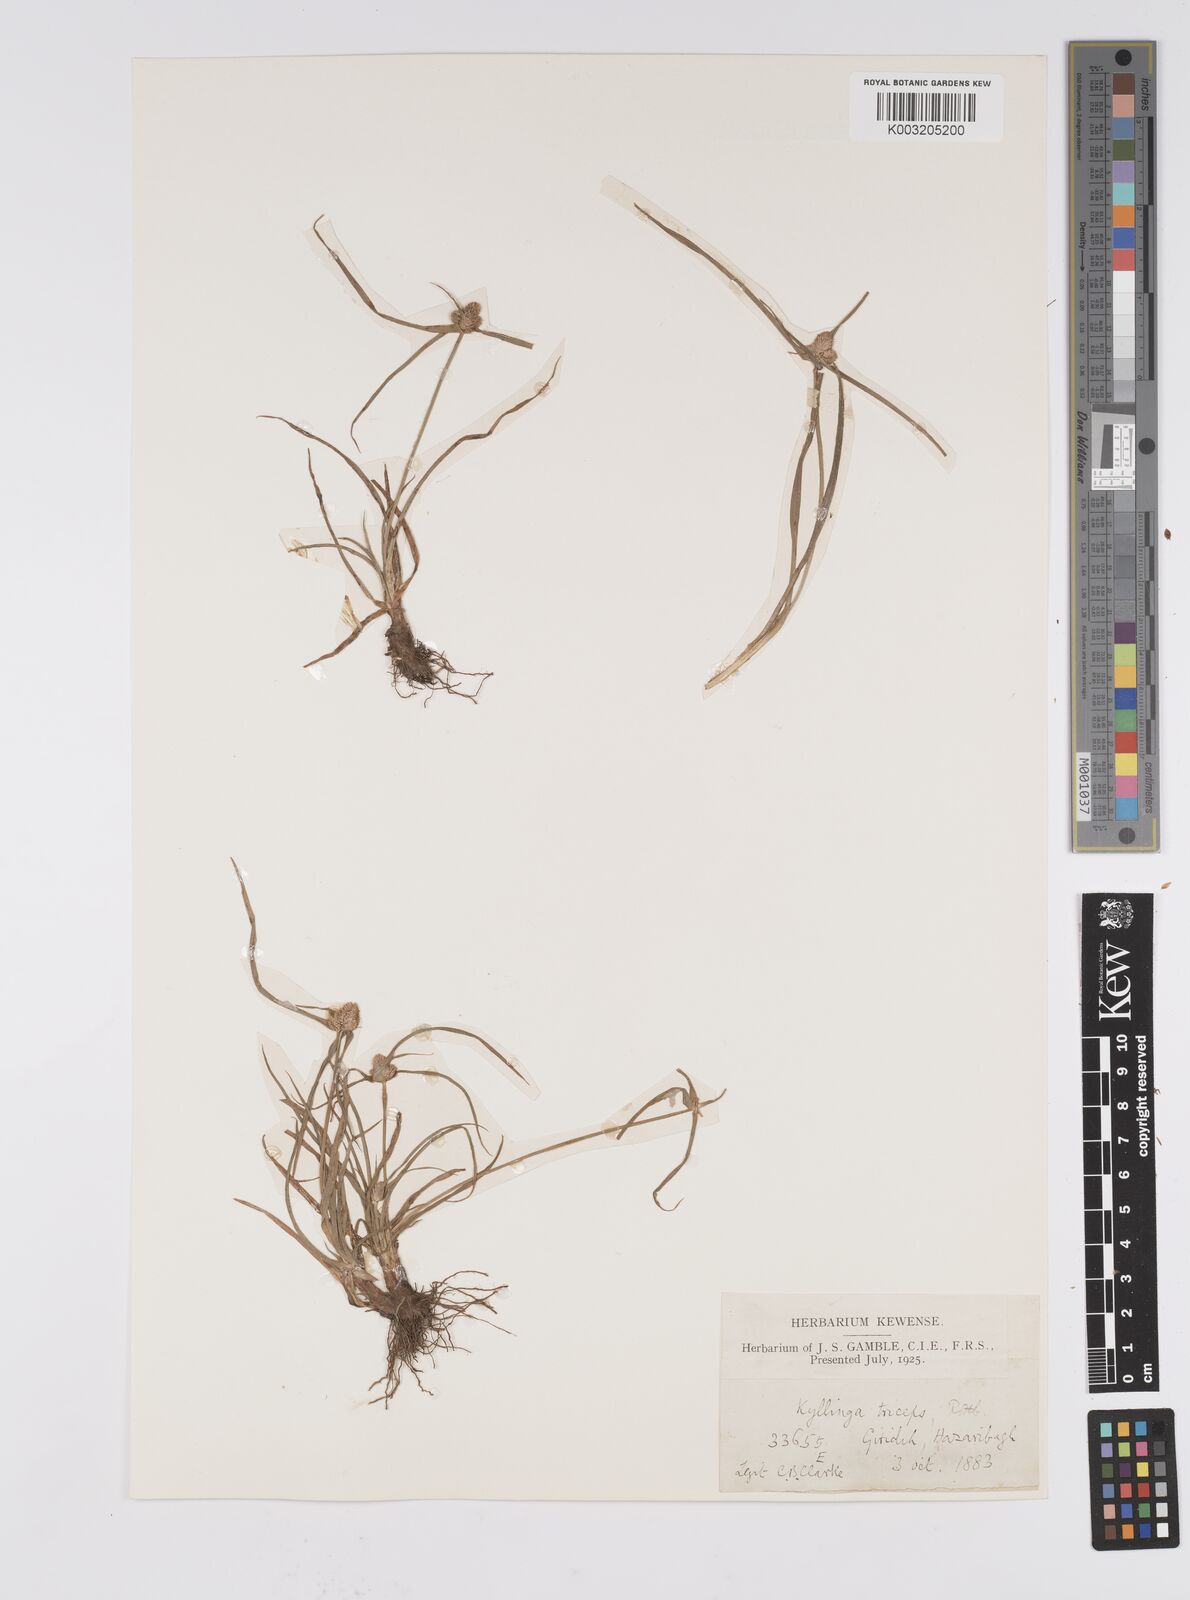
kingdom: Plantae
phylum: Tracheophyta
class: Liliopsida
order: Poales
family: Cyperaceae
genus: Cyperus
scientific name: Cyperus
